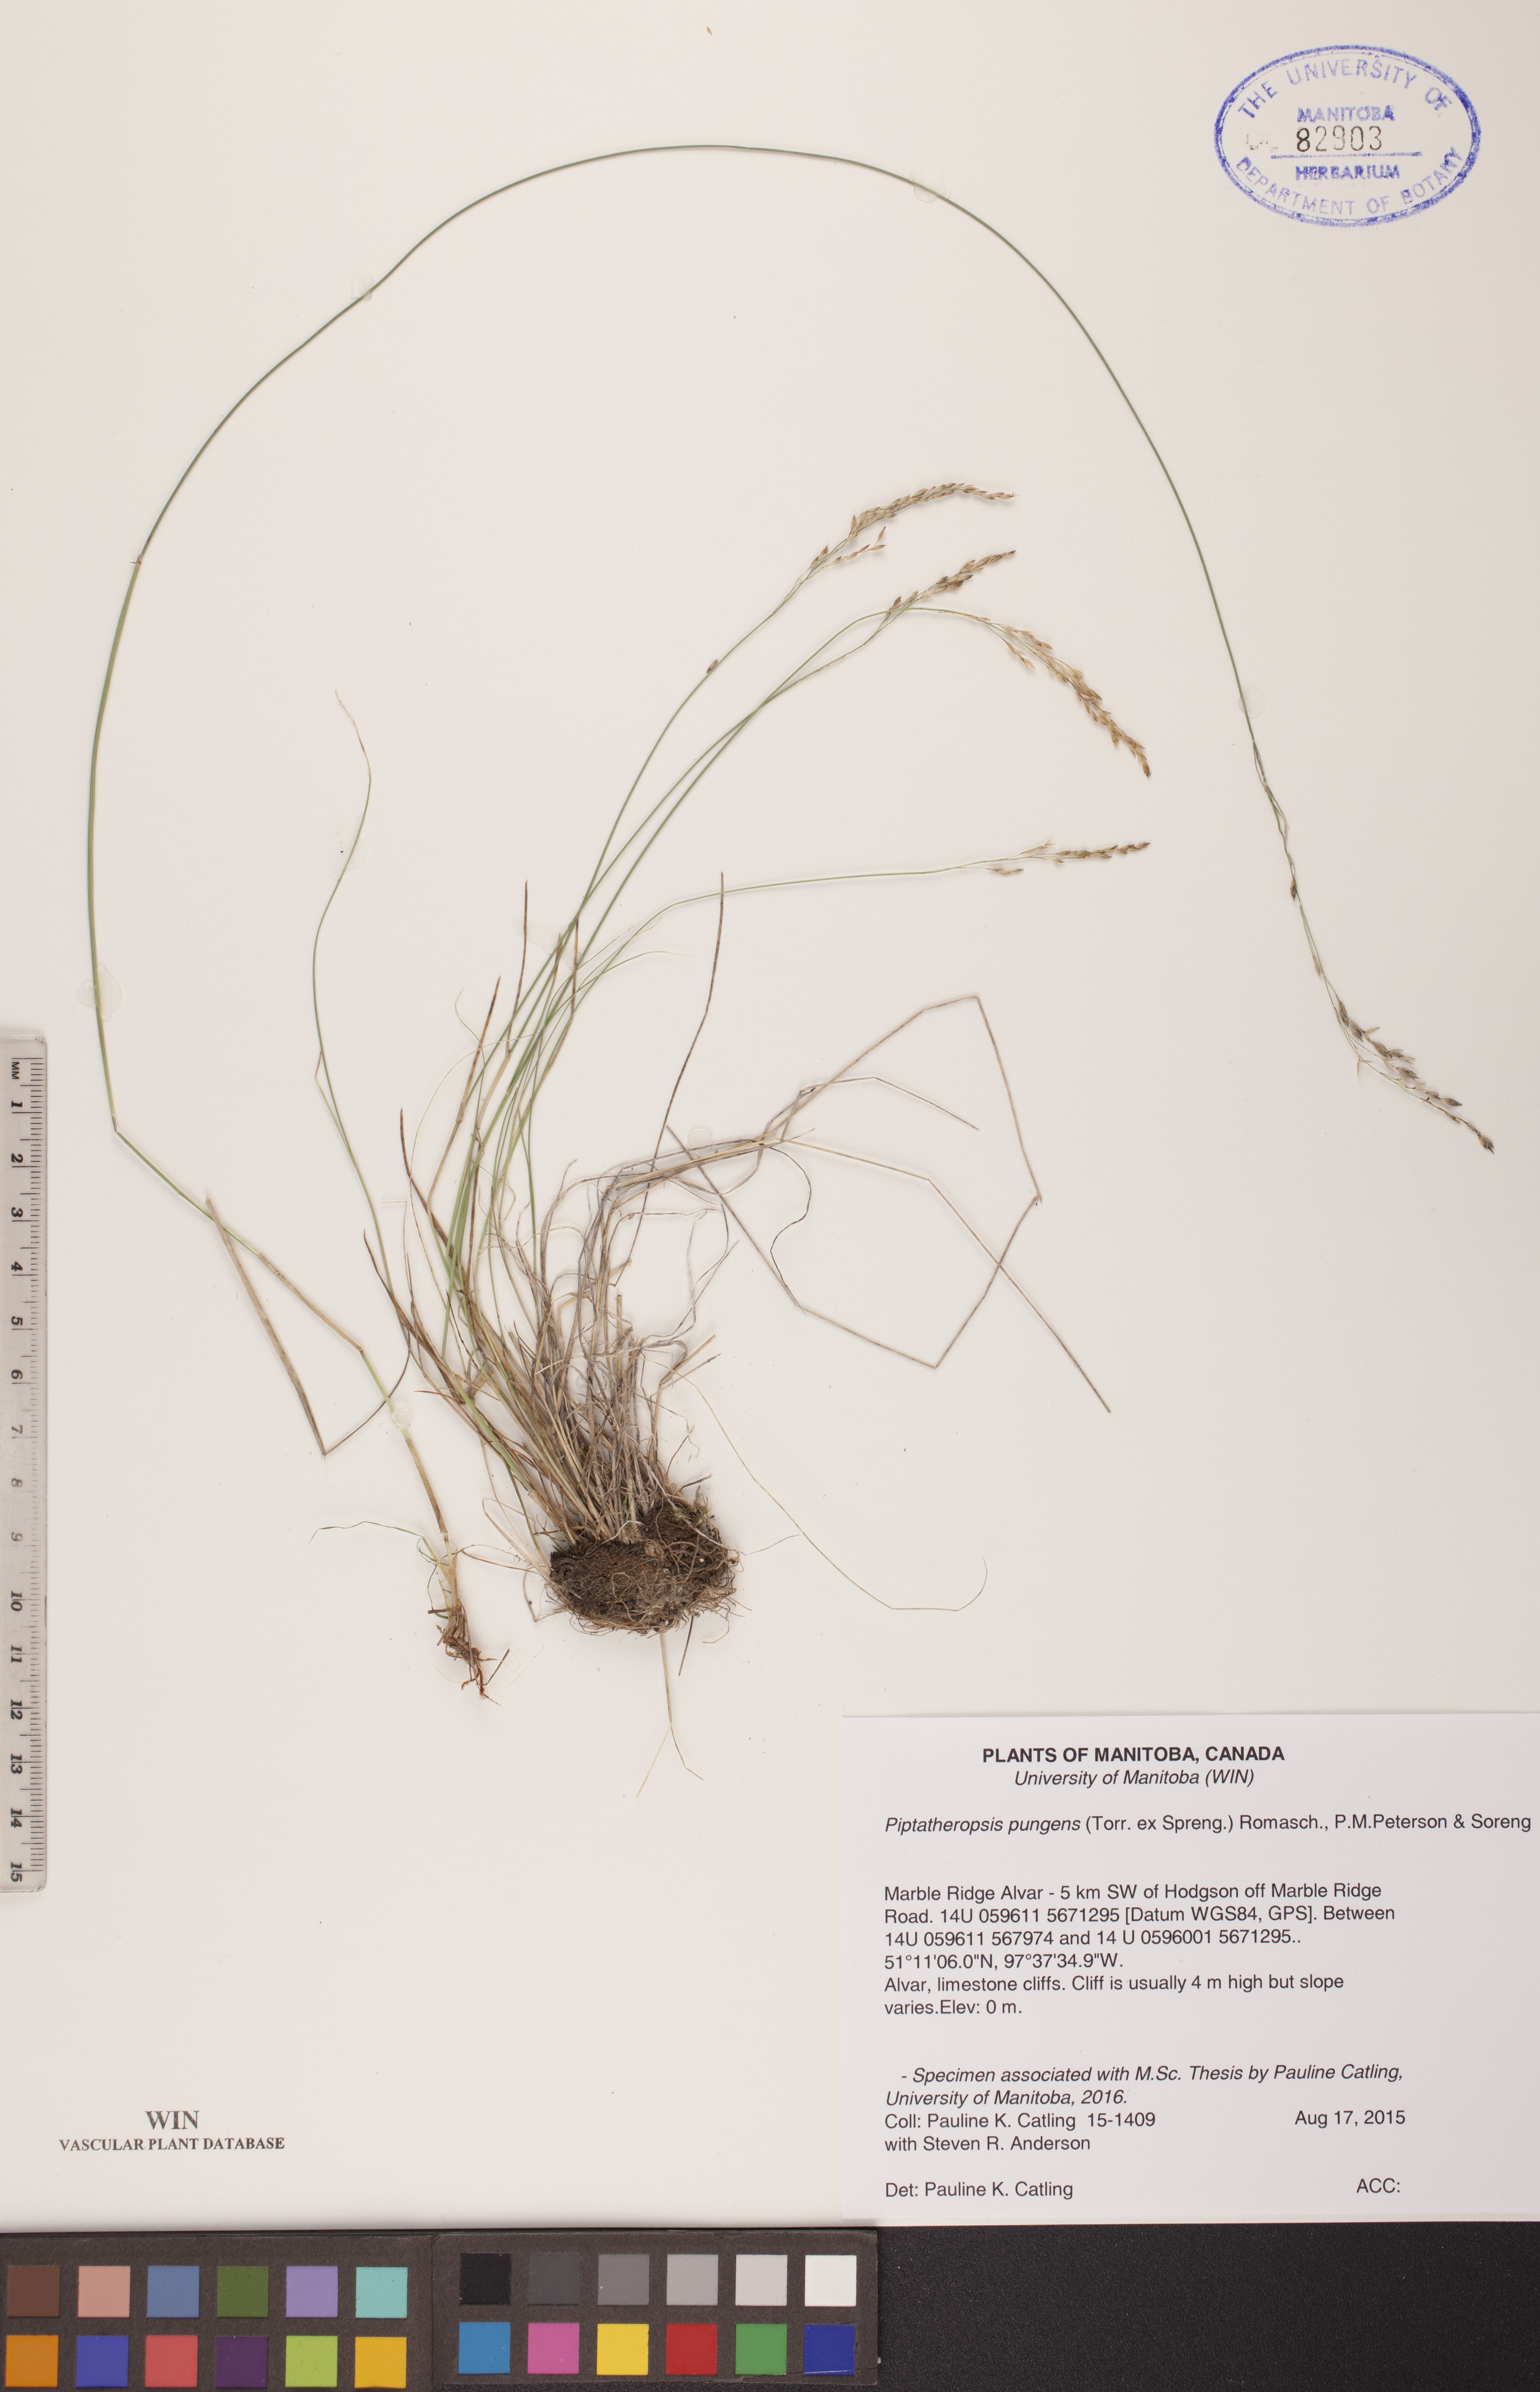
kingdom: Plantae
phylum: Tracheophyta
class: Liliopsida
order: Poales
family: Poaceae
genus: Piptatheropsis
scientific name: Piptatheropsis pungens
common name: Northern ricegrass
